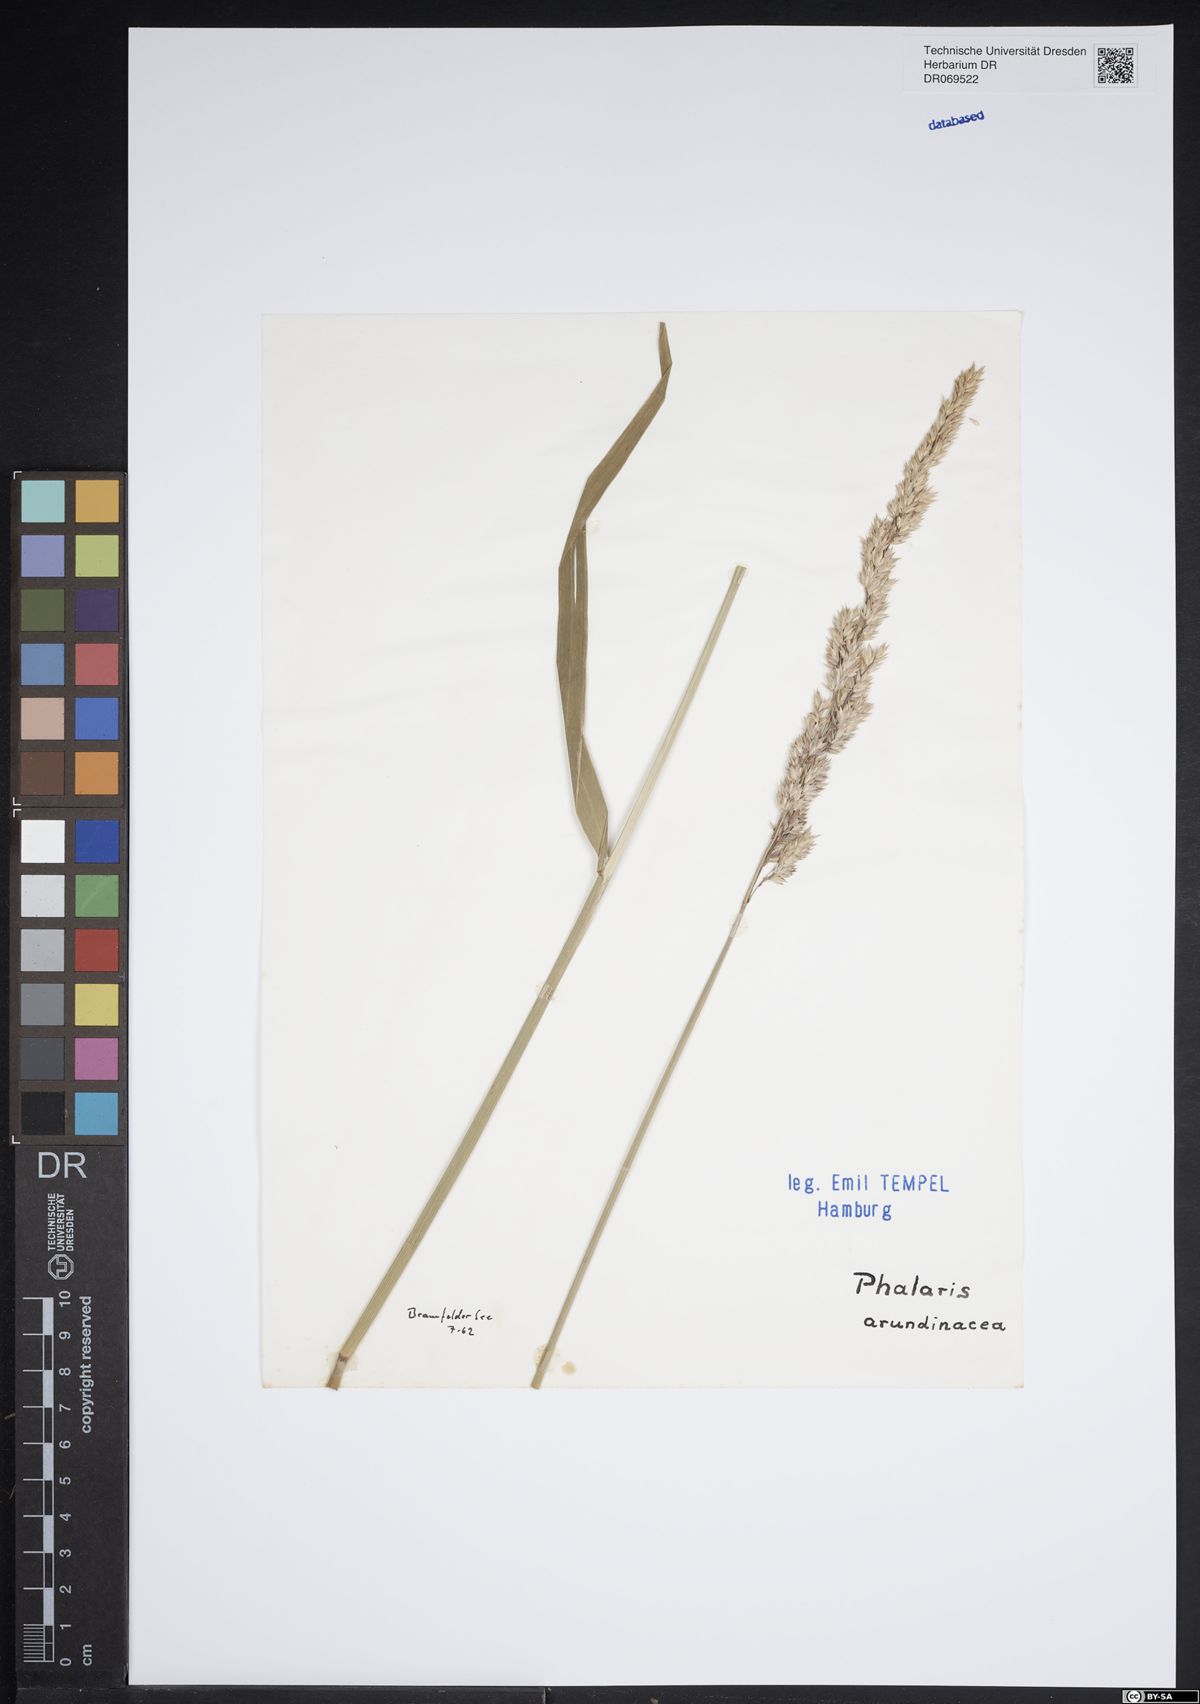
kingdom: Plantae
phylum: Tracheophyta
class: Liliopsida
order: Poales
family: Poaceae
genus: Phalaris
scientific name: Phalaris arundinacea
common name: Reed canary-grass
